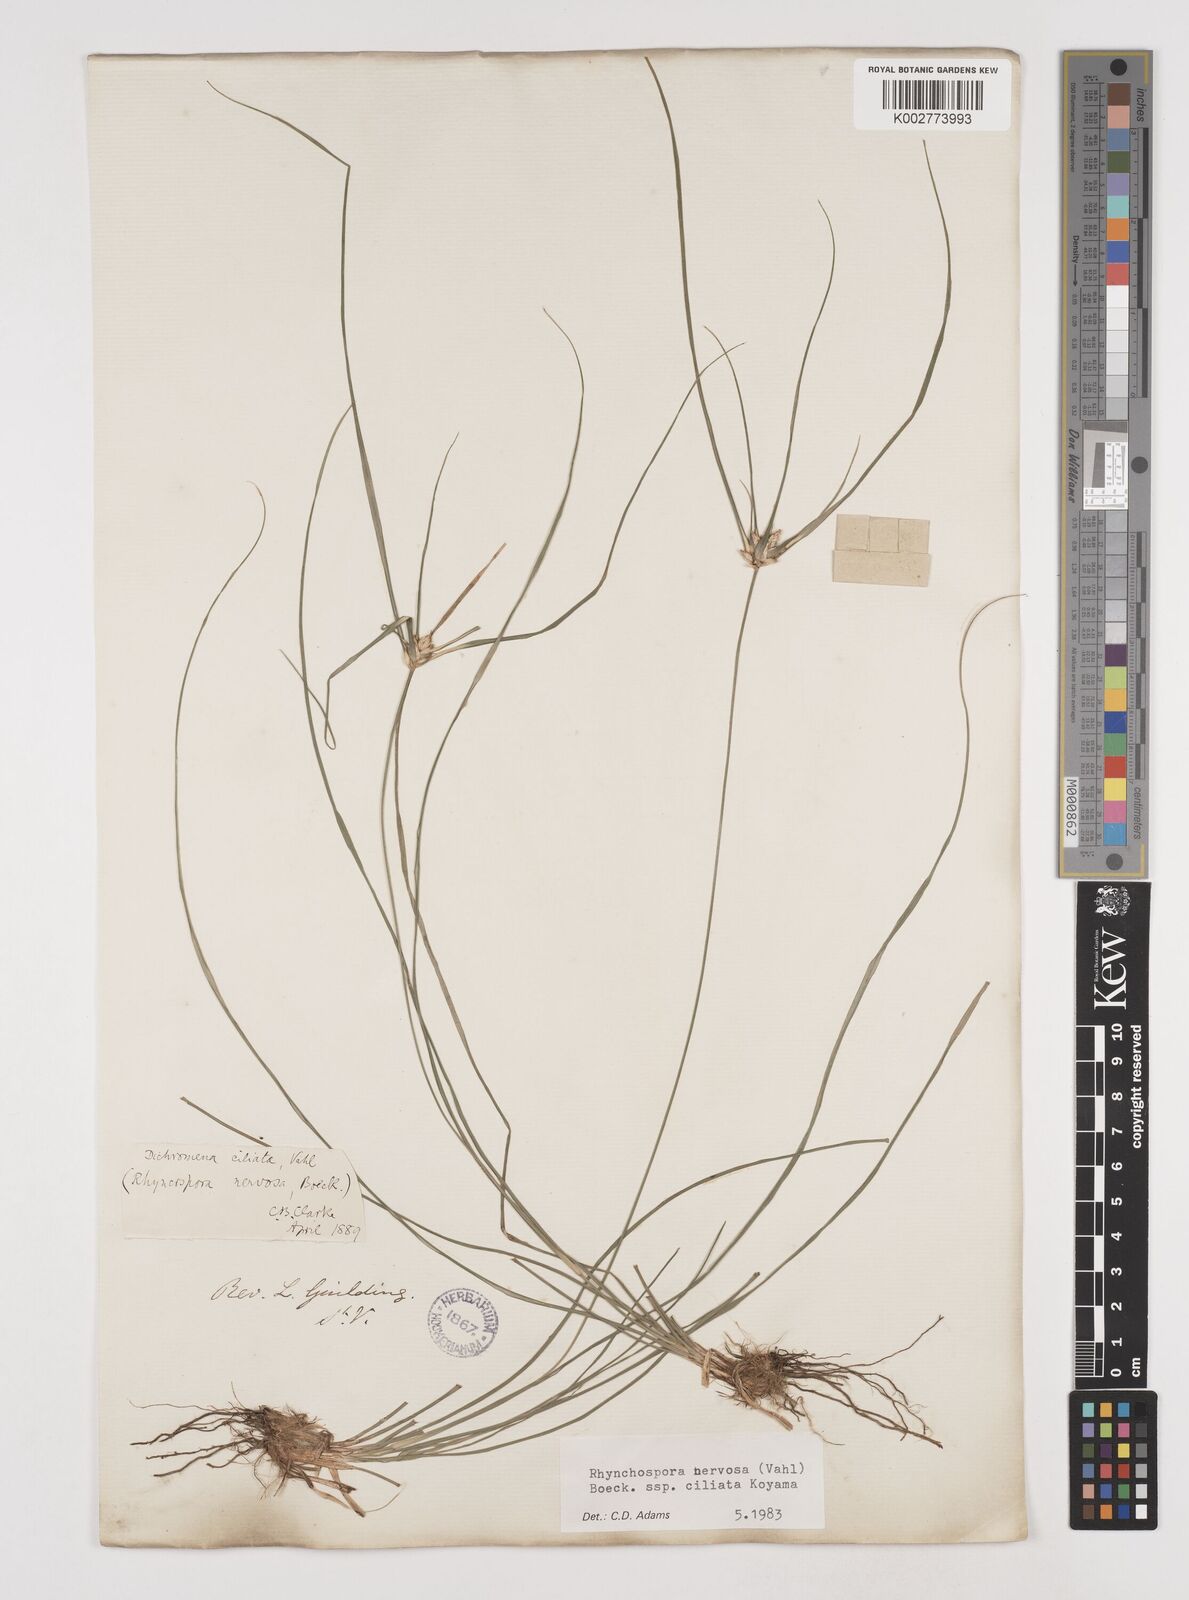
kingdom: Plantae
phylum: Tracheophyta
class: Liliopsida
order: Poales
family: Cyperaceae
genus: Rhynchospora
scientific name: Rhynchospora pura
